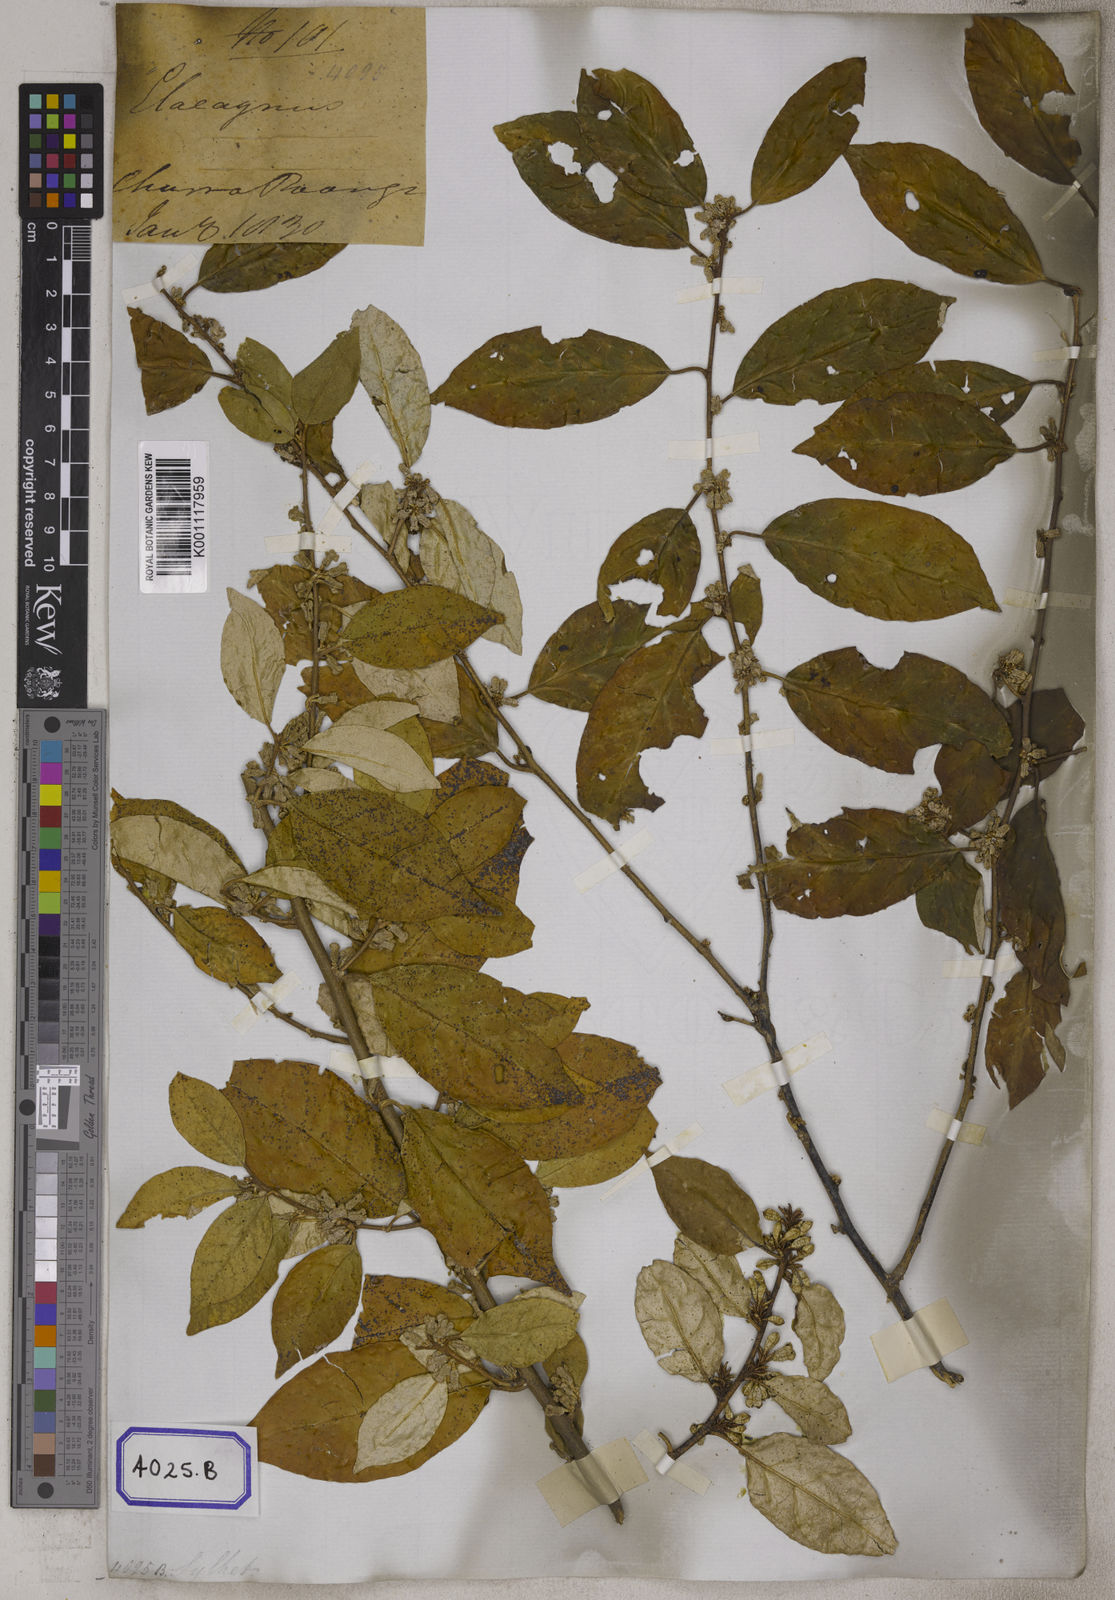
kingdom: Plantae
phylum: Tracheophyta
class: Magnoliopsida
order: Rosales
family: Elaeagnaceae
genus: Elaeagnus
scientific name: Elaeagnus conferta
